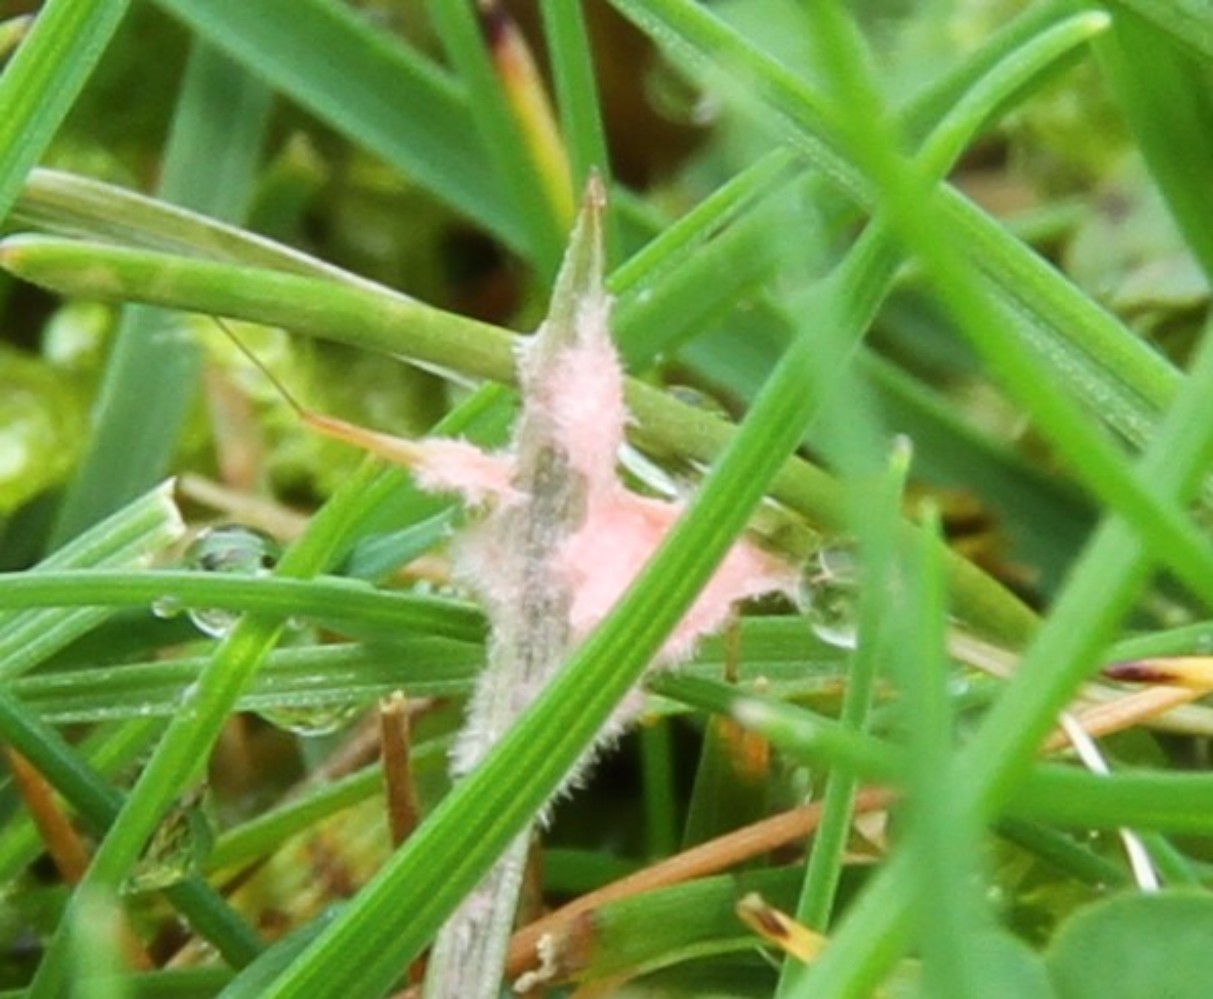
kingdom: Fungi
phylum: Basidiomycota
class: Agaricomycetes
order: Corticiales
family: Corticiaceae
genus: Laetisaria
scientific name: Laetisaria fuciformis
